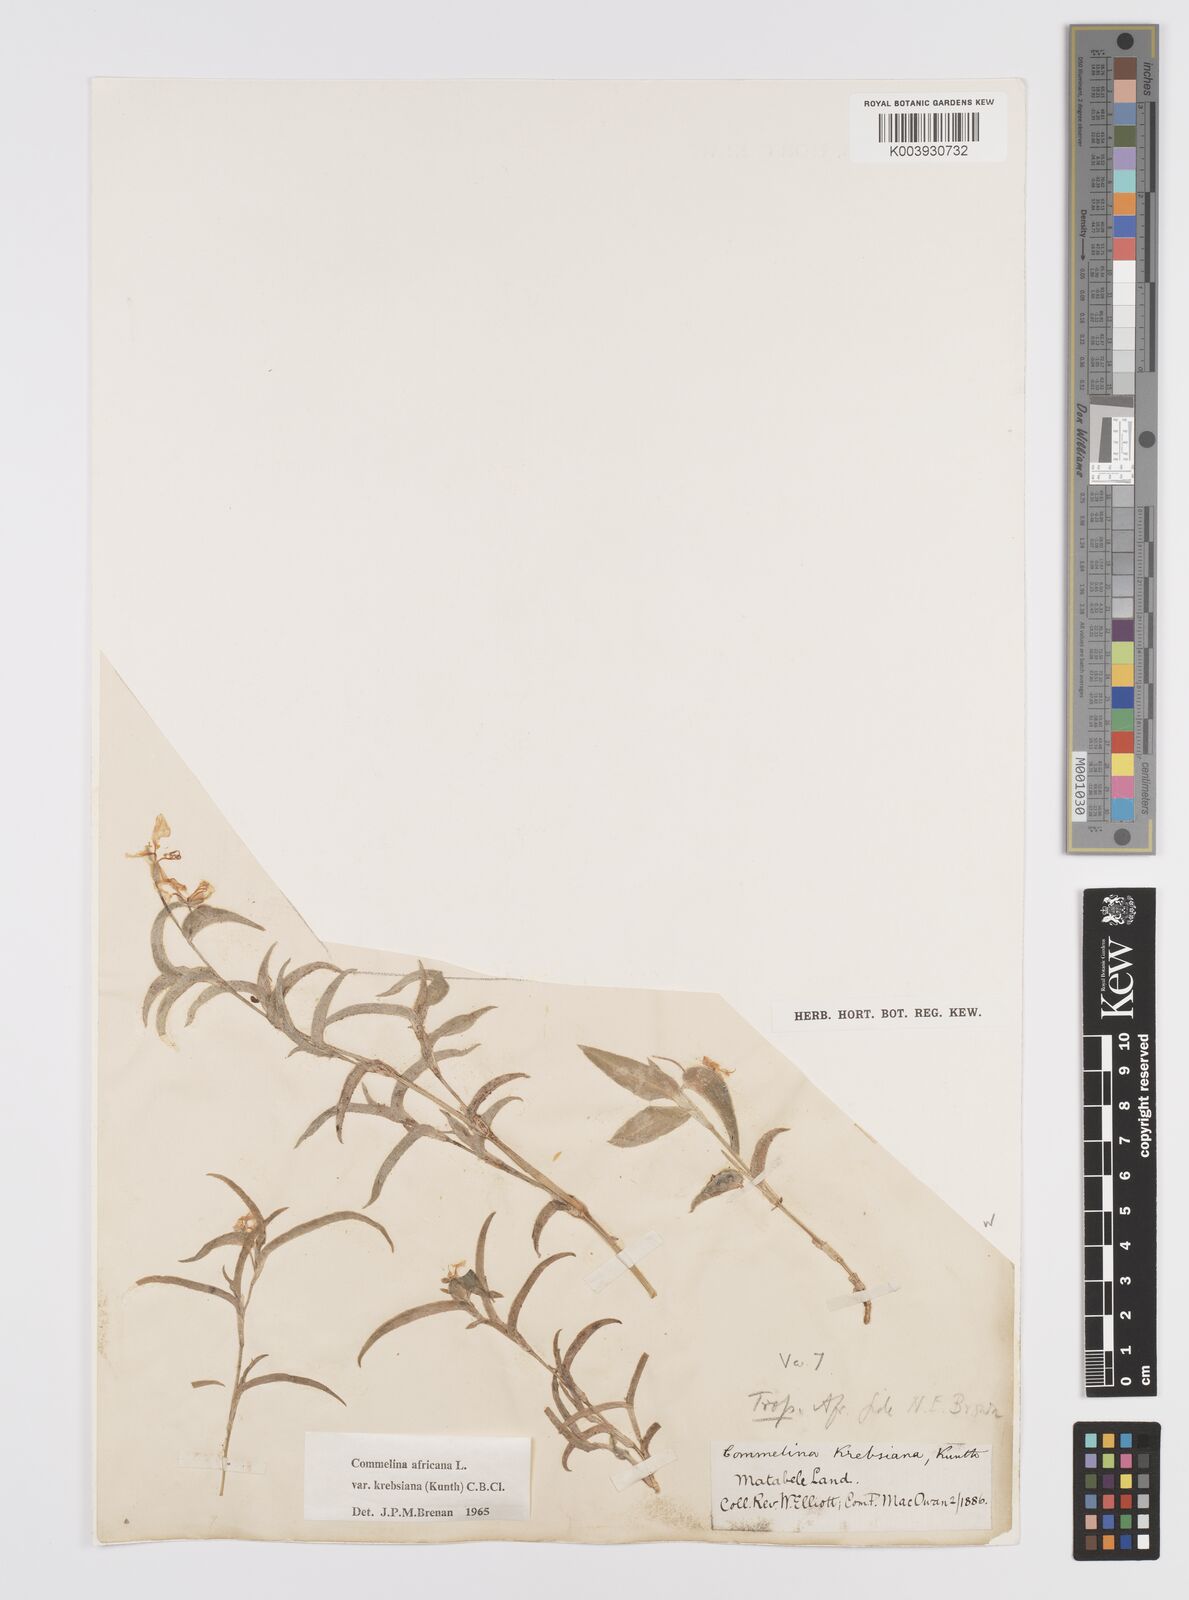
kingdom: Plantae
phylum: Tracheophyta
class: Liliopsida
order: Commelinales
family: Commelinaceae
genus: Commelina
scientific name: Commelina africana
